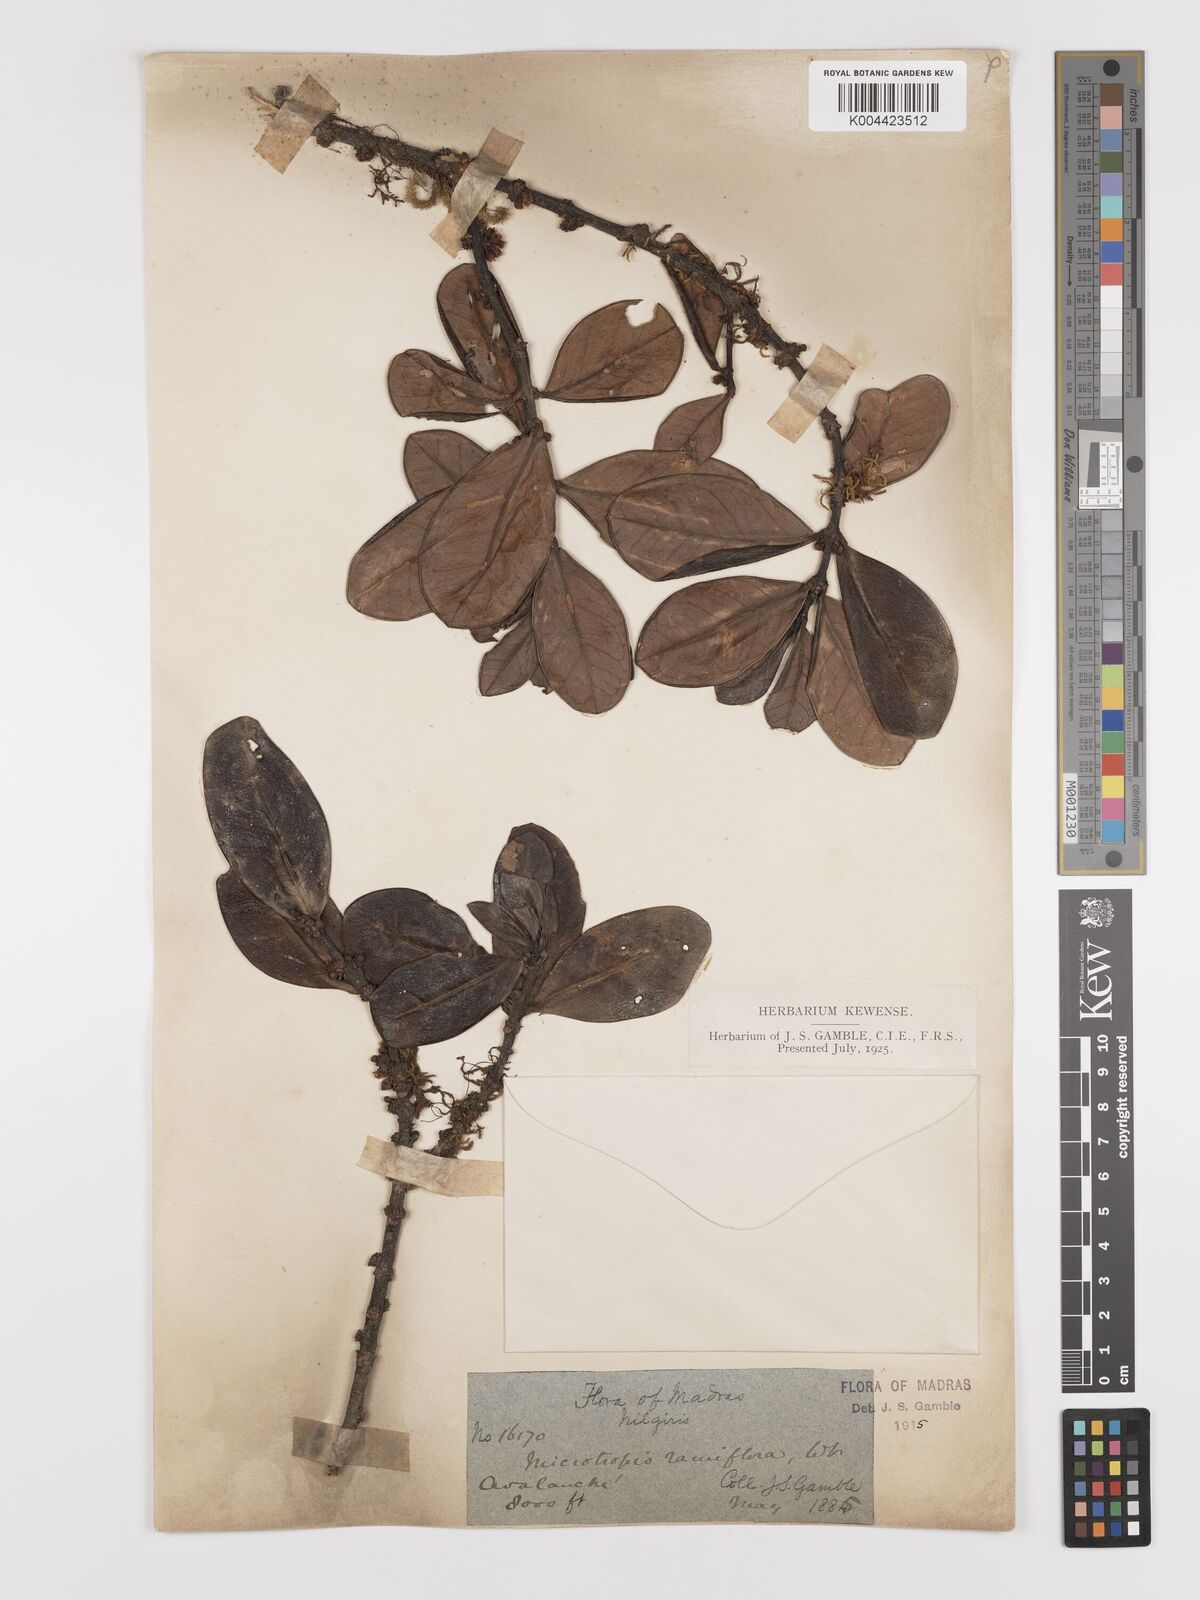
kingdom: Plantae
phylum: Tracheophyta
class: Magnoliopsida
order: Celastrales
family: Celastraceae
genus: Microtropis
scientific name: Microtropis ramiflora
